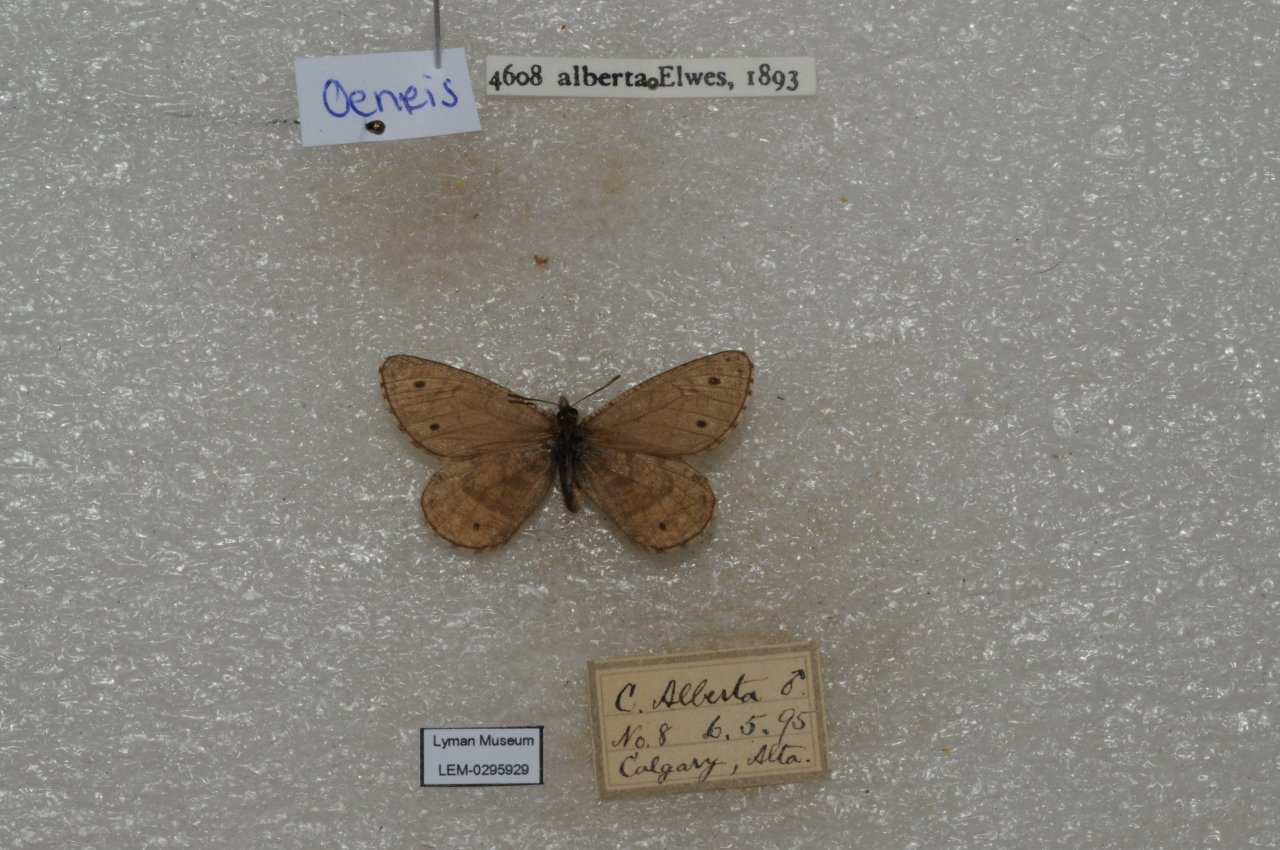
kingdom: Animalia
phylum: Arthropoda
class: Insecta
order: Lepidoptera
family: Nymphalidae
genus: Oeneis
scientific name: Oeneis alberta
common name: Alberta Arctic
